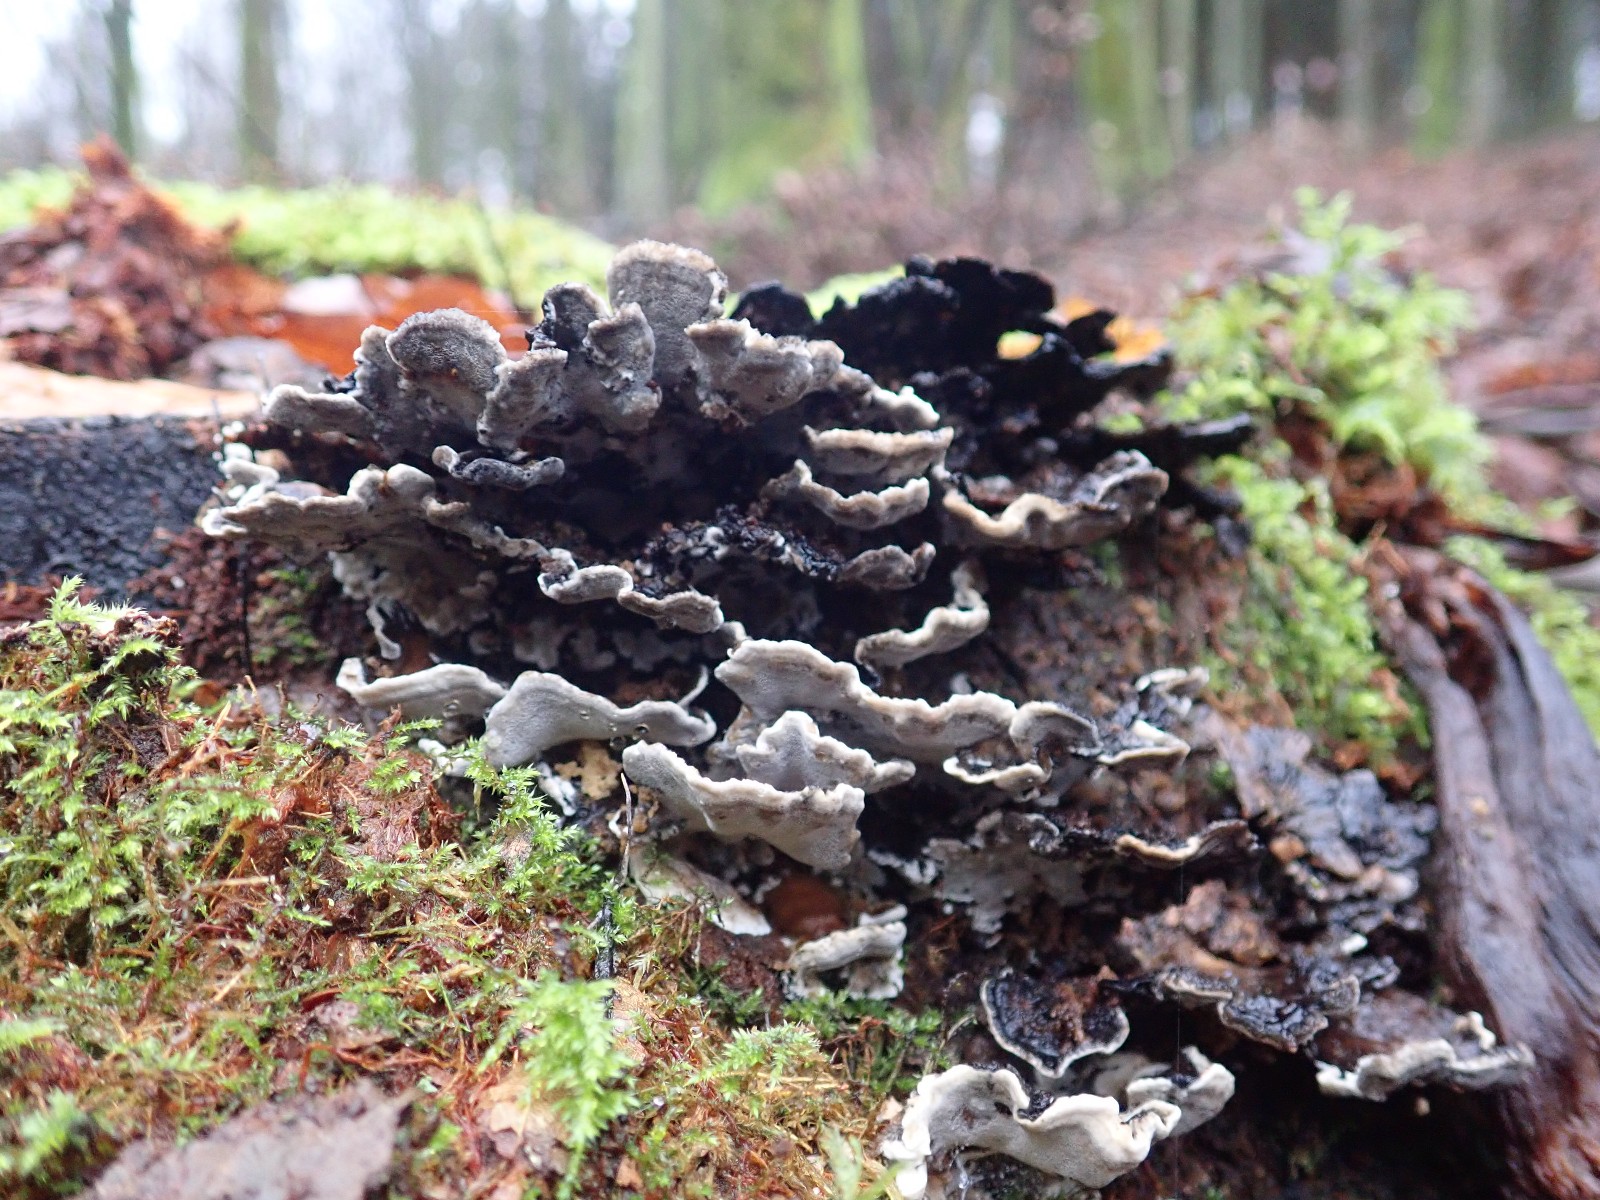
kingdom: Fungi
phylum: Basidiomycota
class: Agaricomycetes
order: Polyporales
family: Phanerochaetaceae
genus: Bjerkandera
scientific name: Bjerkandera adusta
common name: sveden sodporesvamp
